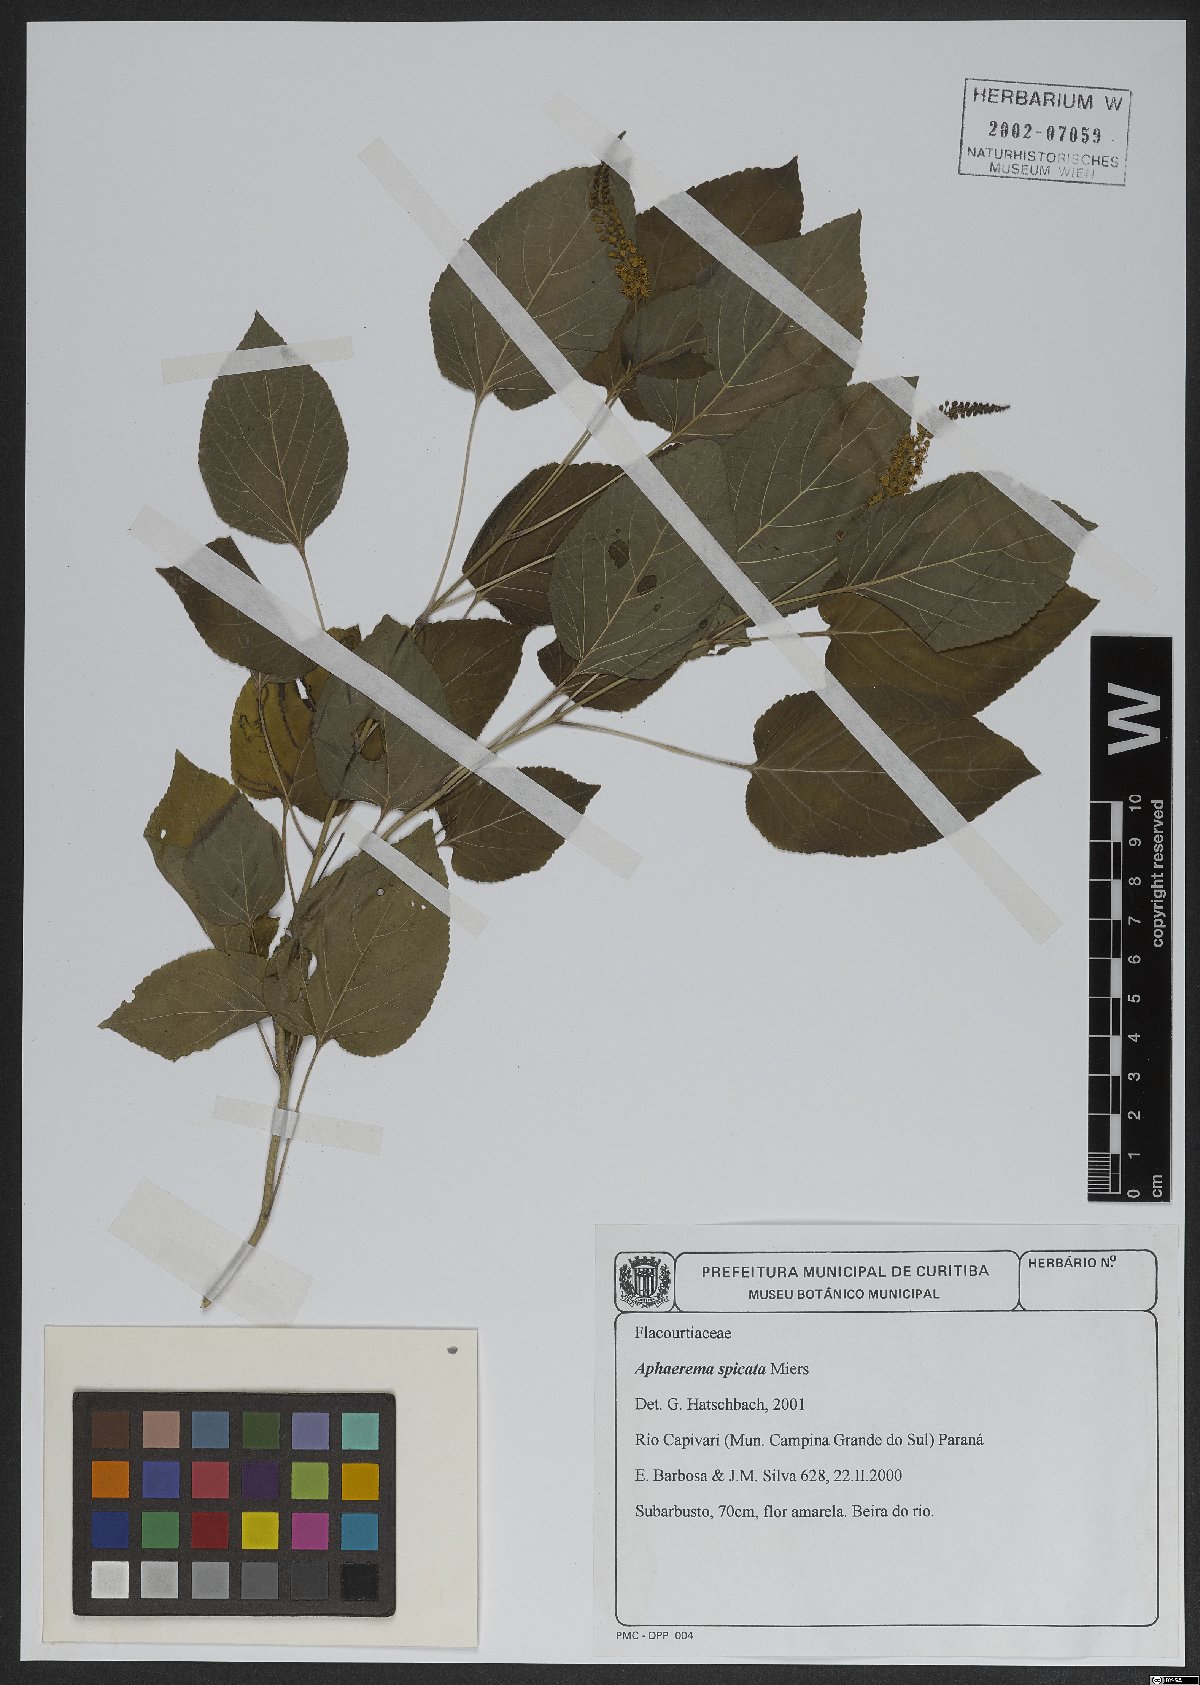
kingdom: Plantae
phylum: Tracheophyta
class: Magnoliopsida
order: Malpighiales
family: Salicaceae
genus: Abatia
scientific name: Abatia angeliana
